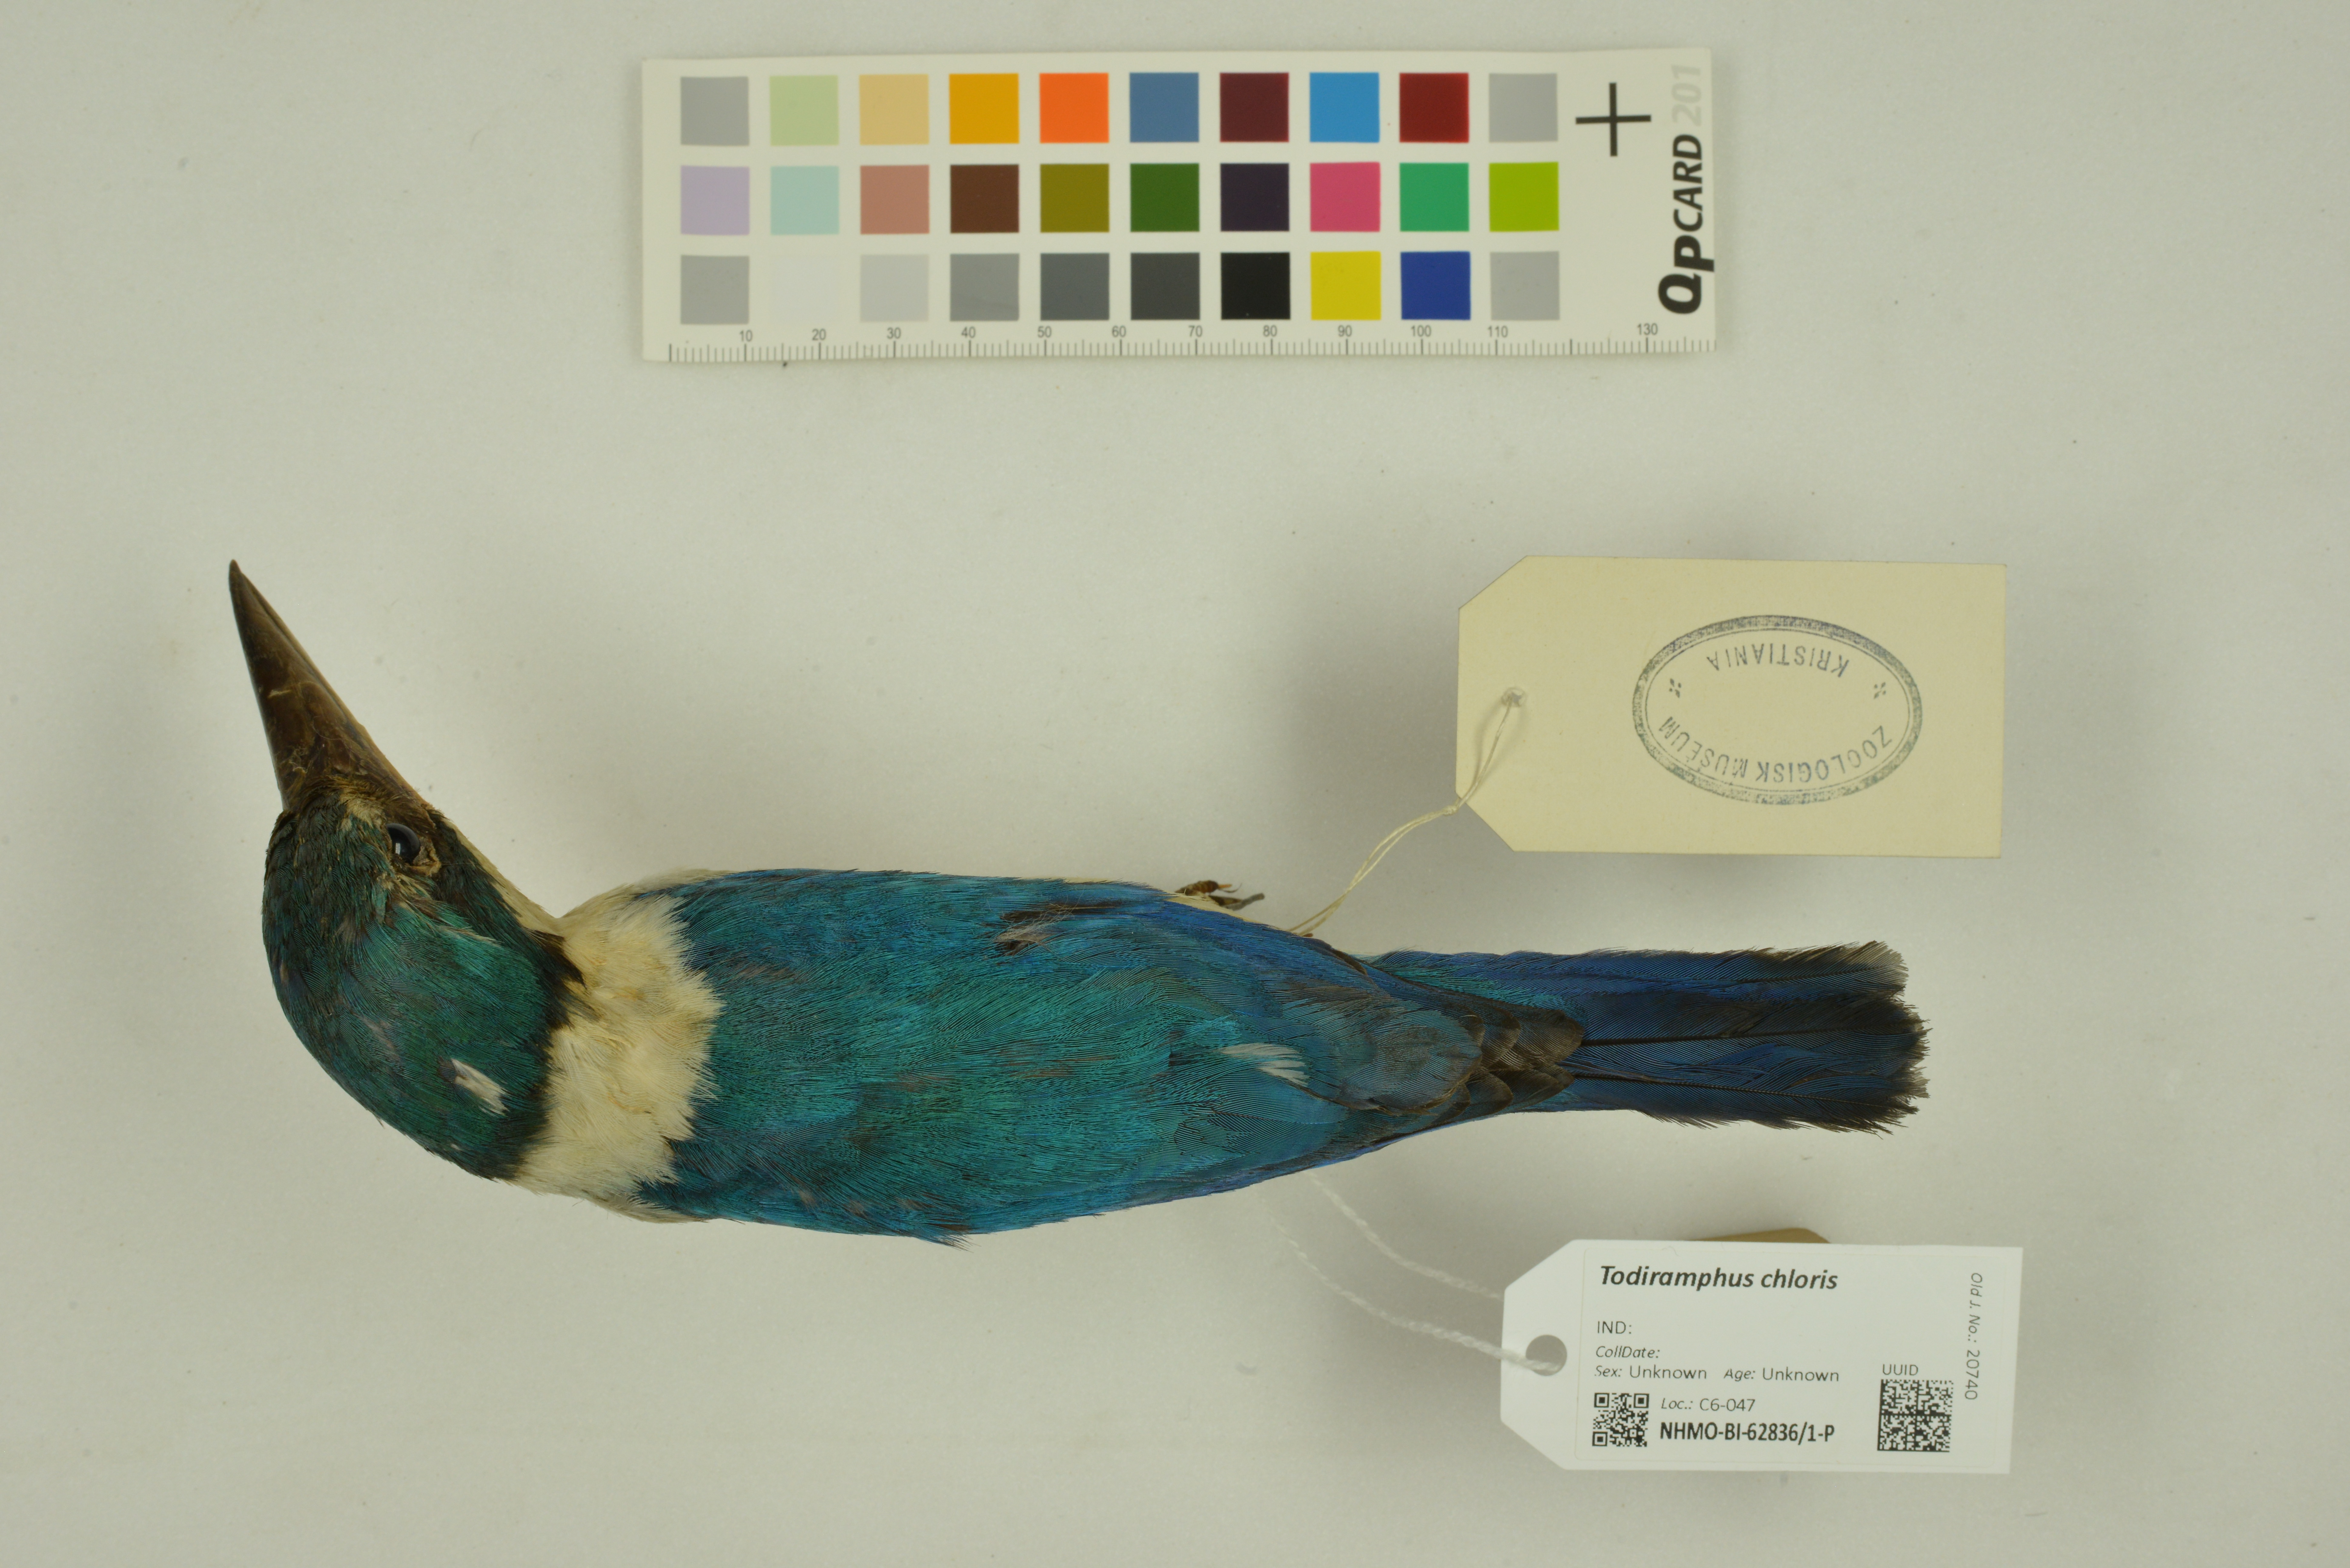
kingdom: Animalia
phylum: Chordata
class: Aves
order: Coraciiformes
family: Alcedinidae
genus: Todiramphus
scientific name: Todiramphus chloris
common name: Collared kingfisher
